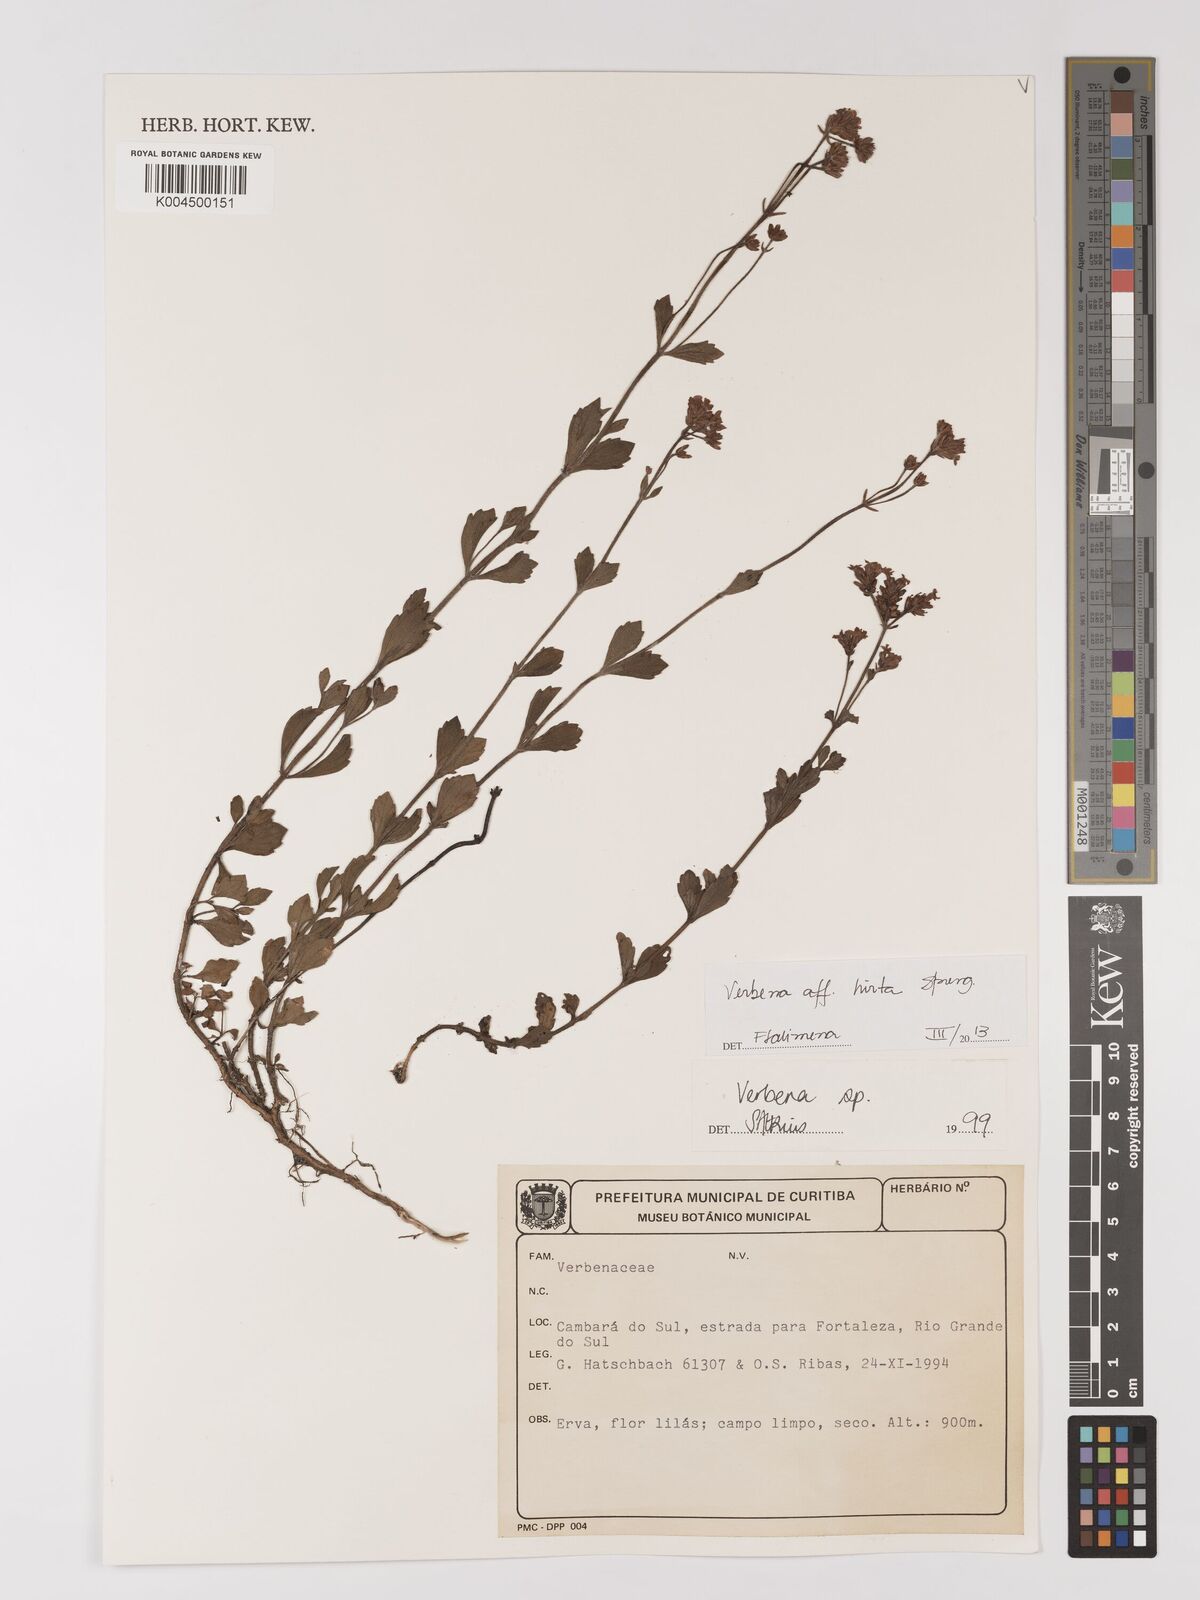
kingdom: Plantae
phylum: Tracheophyta
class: Magnoliopsida
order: Lamiales
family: Verbenaceae
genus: Verbena
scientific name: Verbena hirta
